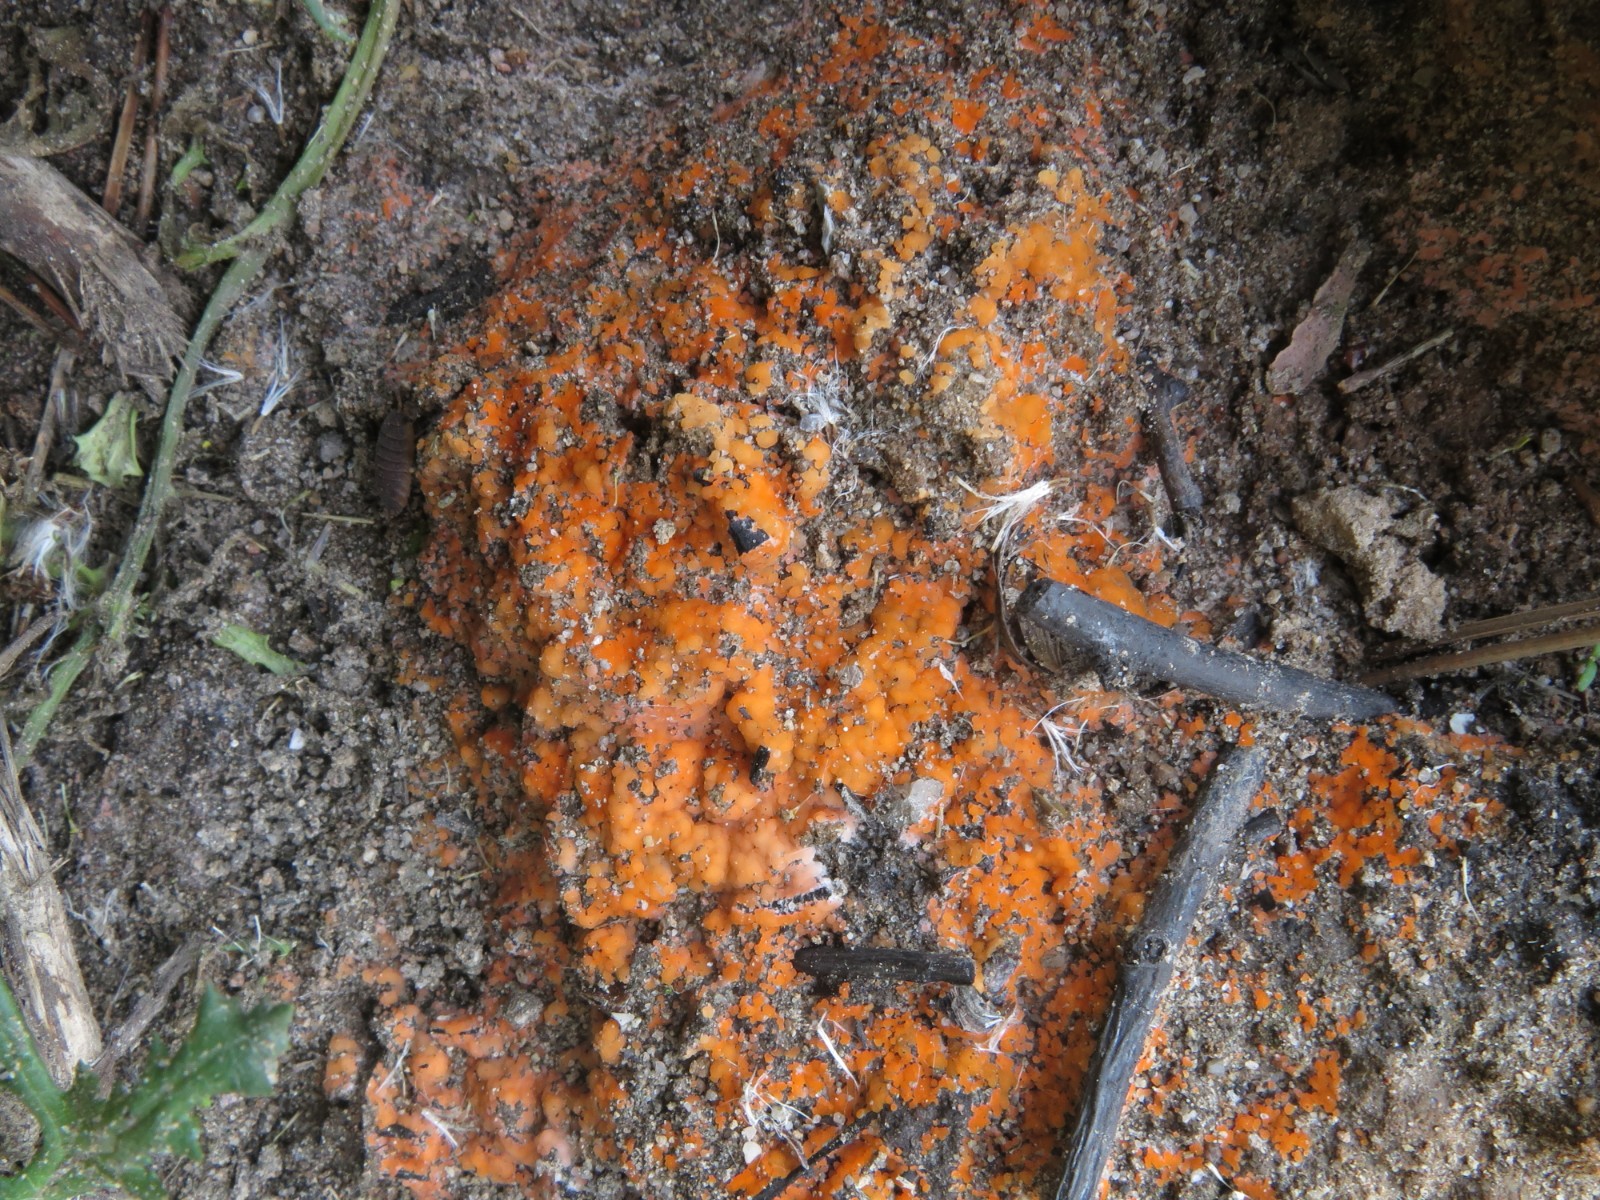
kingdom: Fungi
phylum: Ascomycota
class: Pezizomycetes
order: Pezizales
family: Pyronemataceae
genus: Pyronema
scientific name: Pyronema omphalodes
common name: glat askebæger
